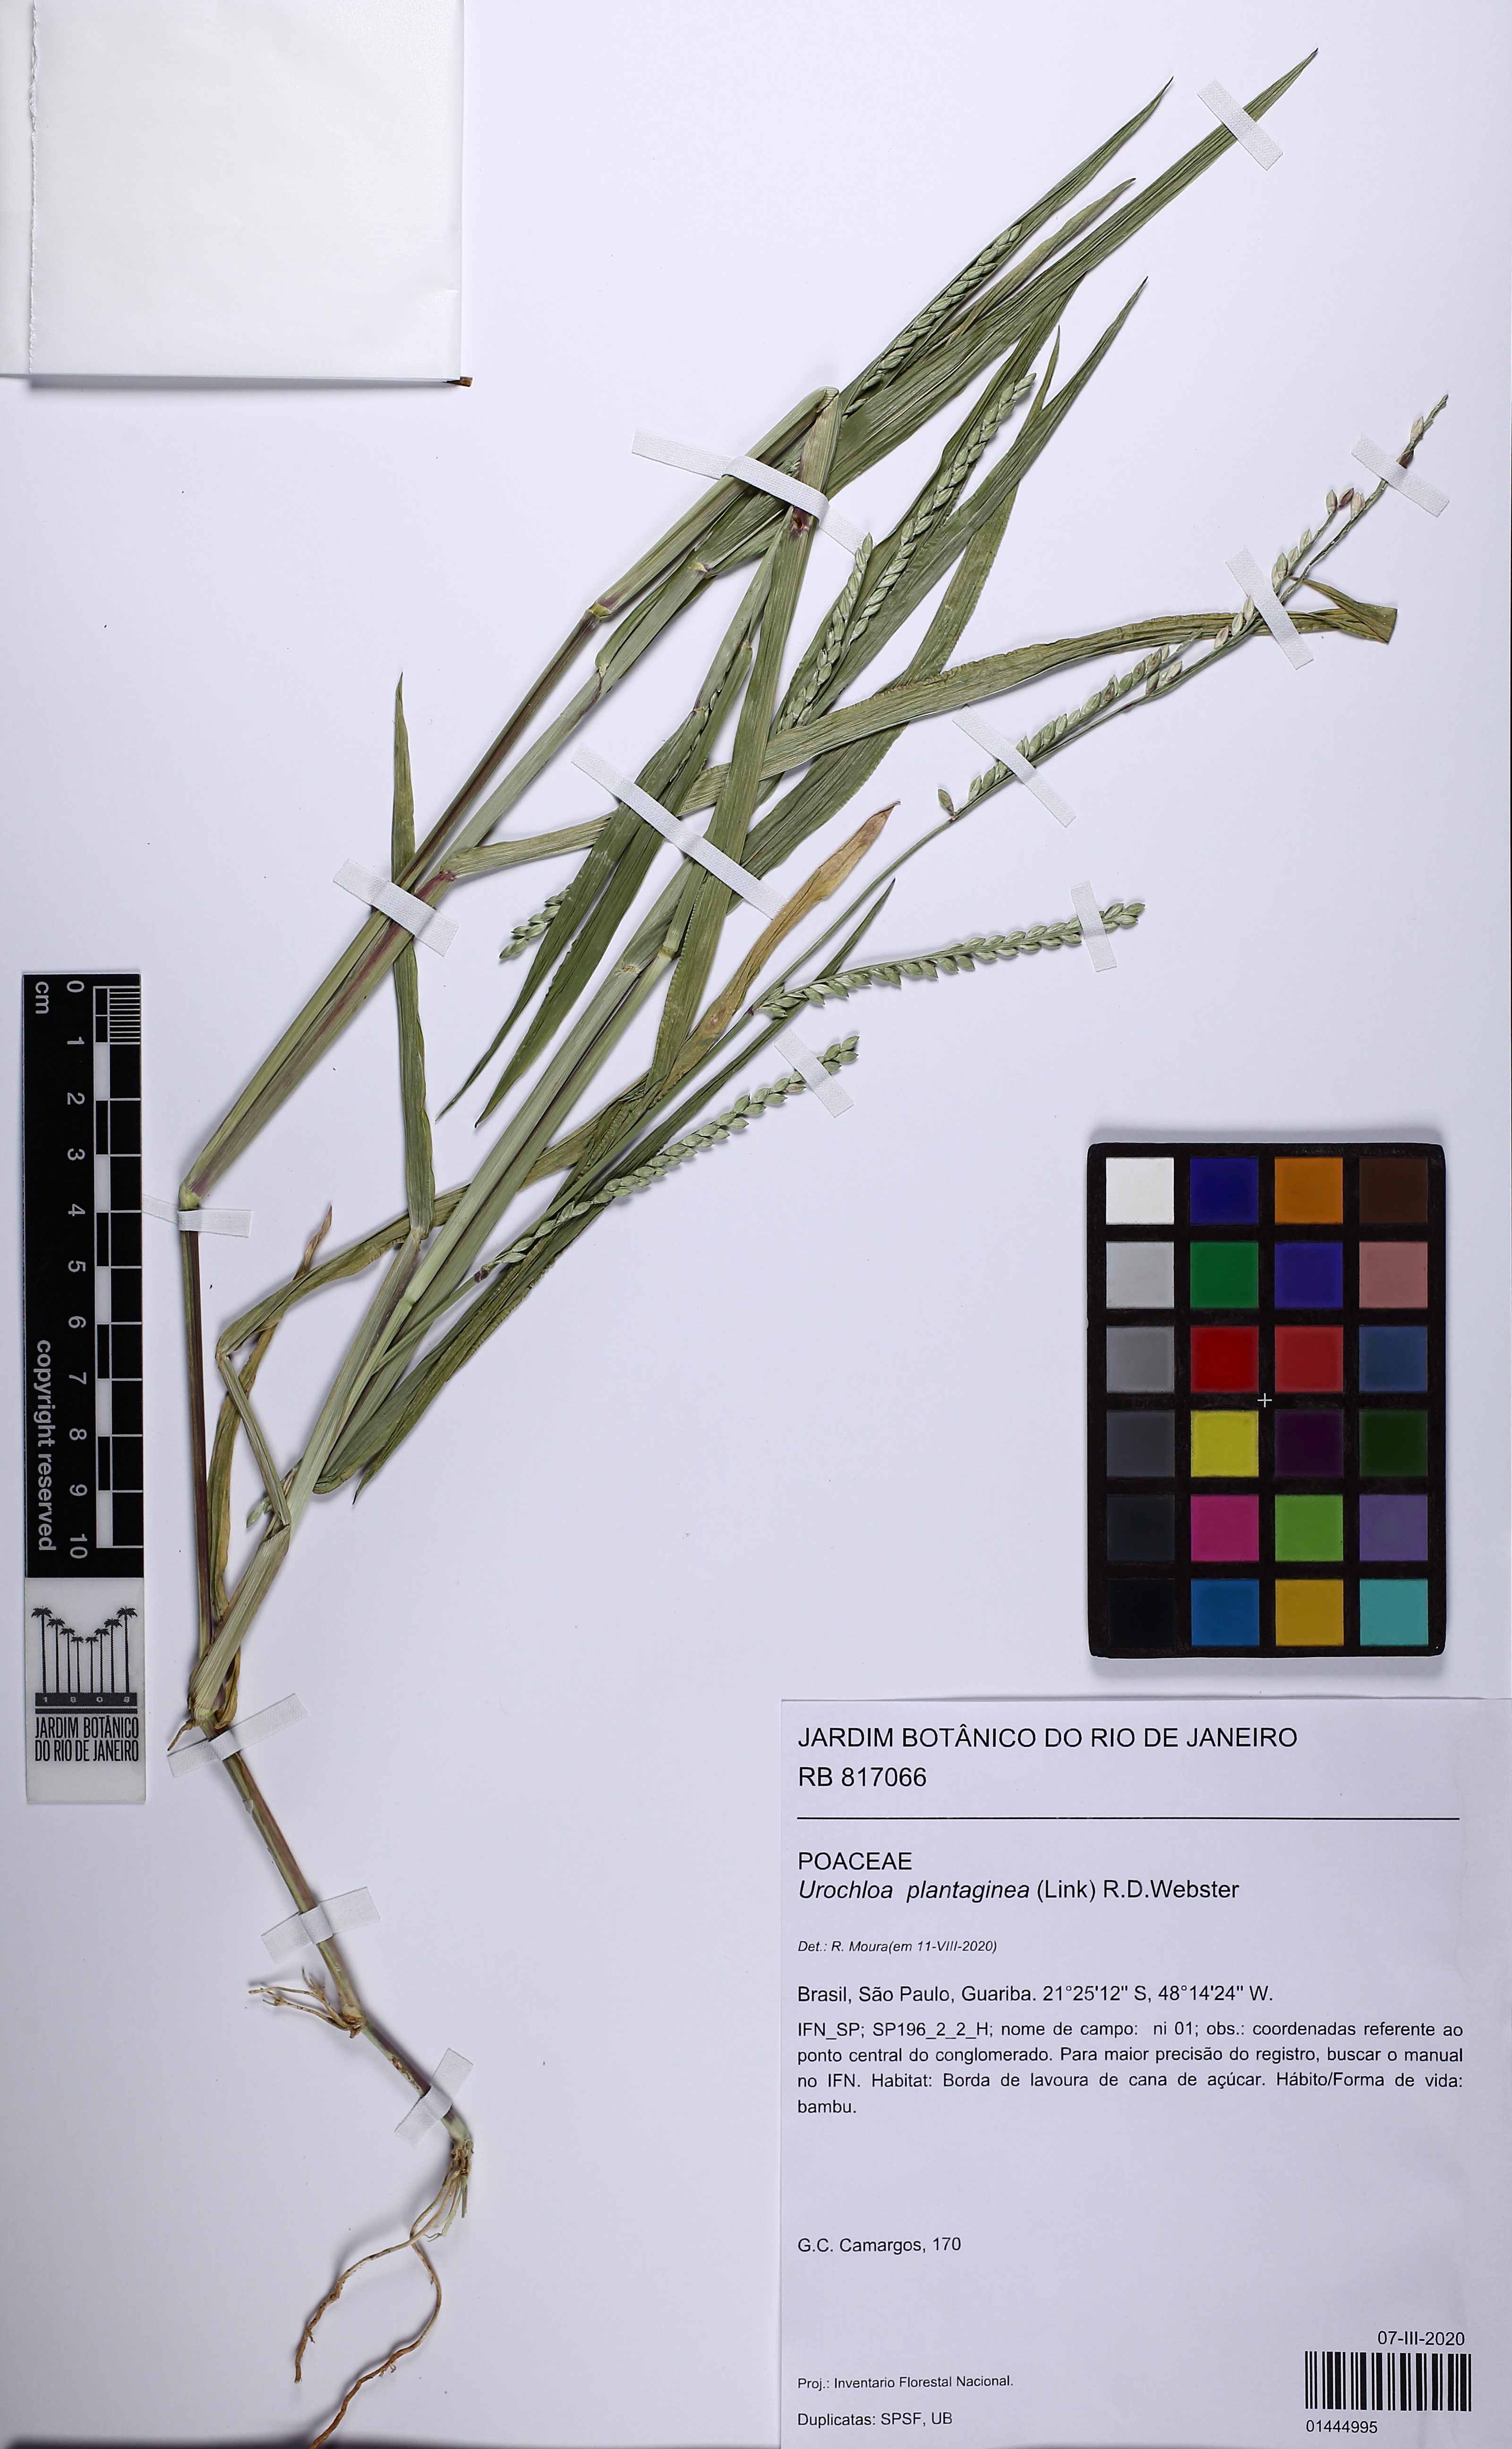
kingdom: Plantae
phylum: Tracheophyta
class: Liliopsida
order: Poales
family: Poaceae
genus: Urochloa
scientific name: Urochloa plantaginea
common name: Plantain signalgrass
